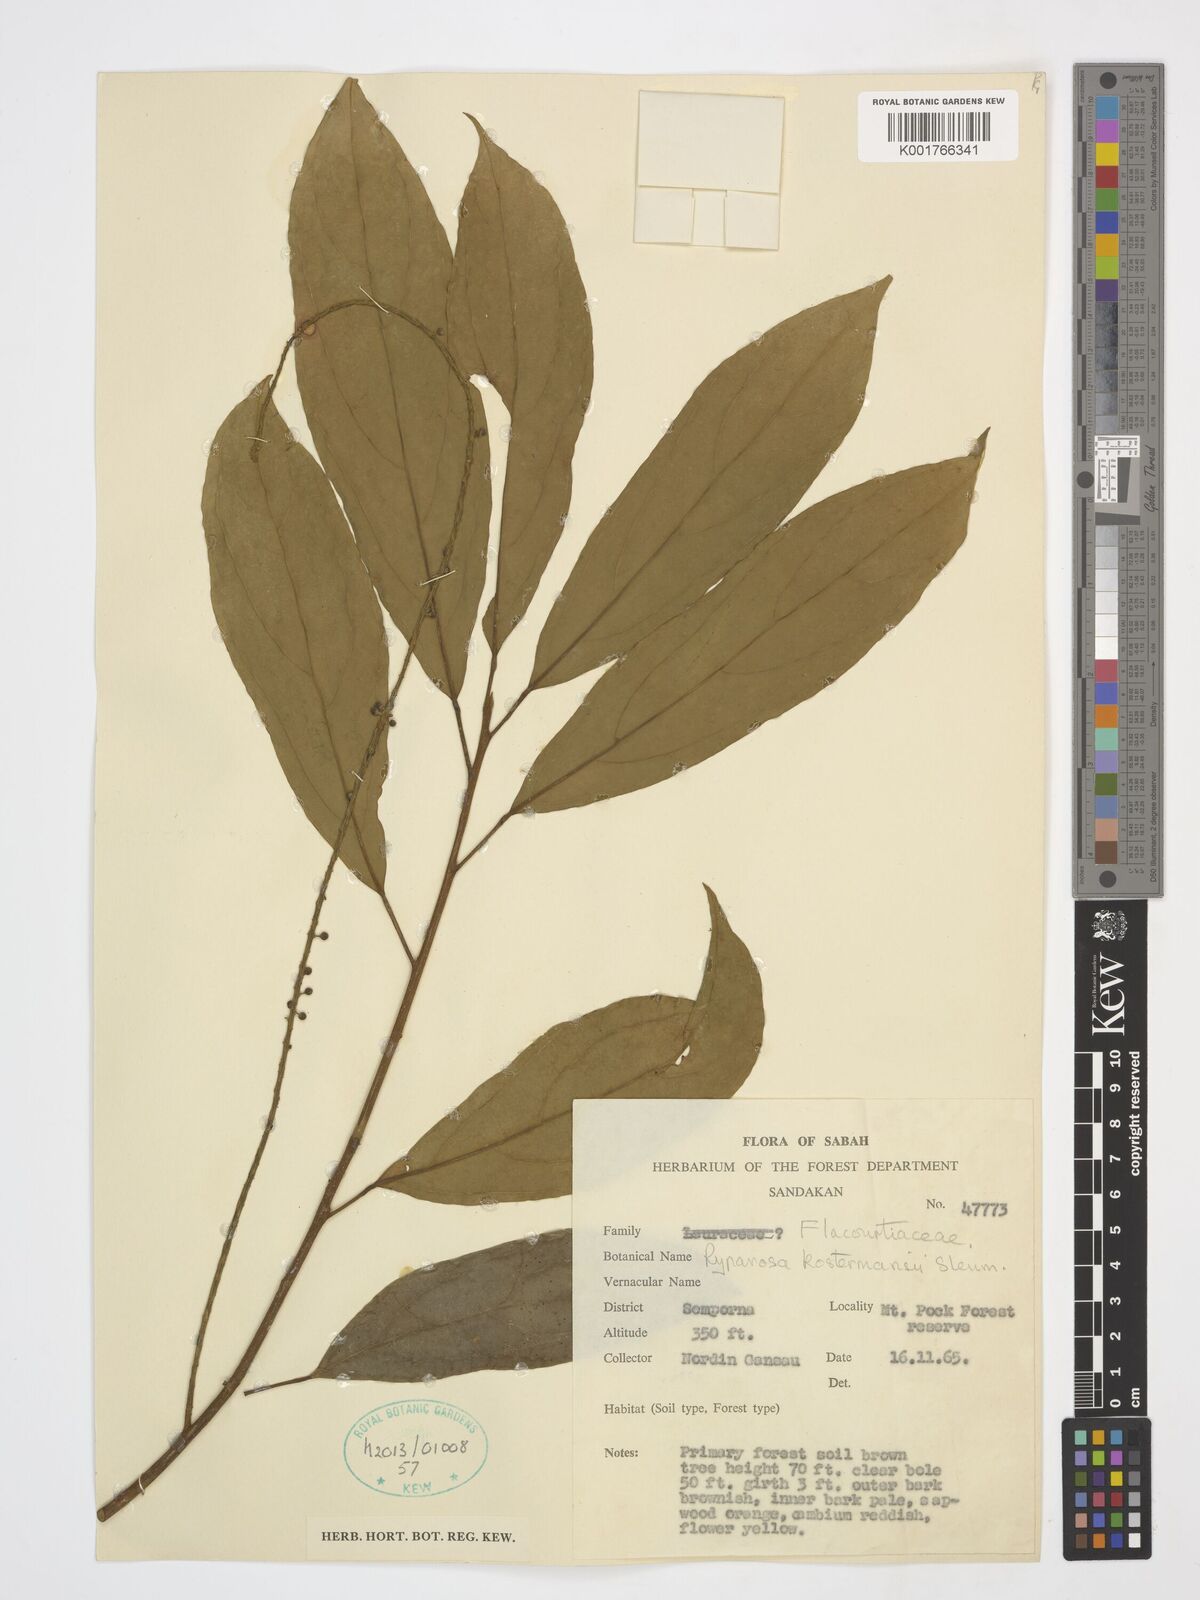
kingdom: Plantae
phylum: Tracheophyta
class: Magnoliopsida
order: Malpighiales
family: Achariaceae
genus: Ryparosa
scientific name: Ryparosa kostermansii
